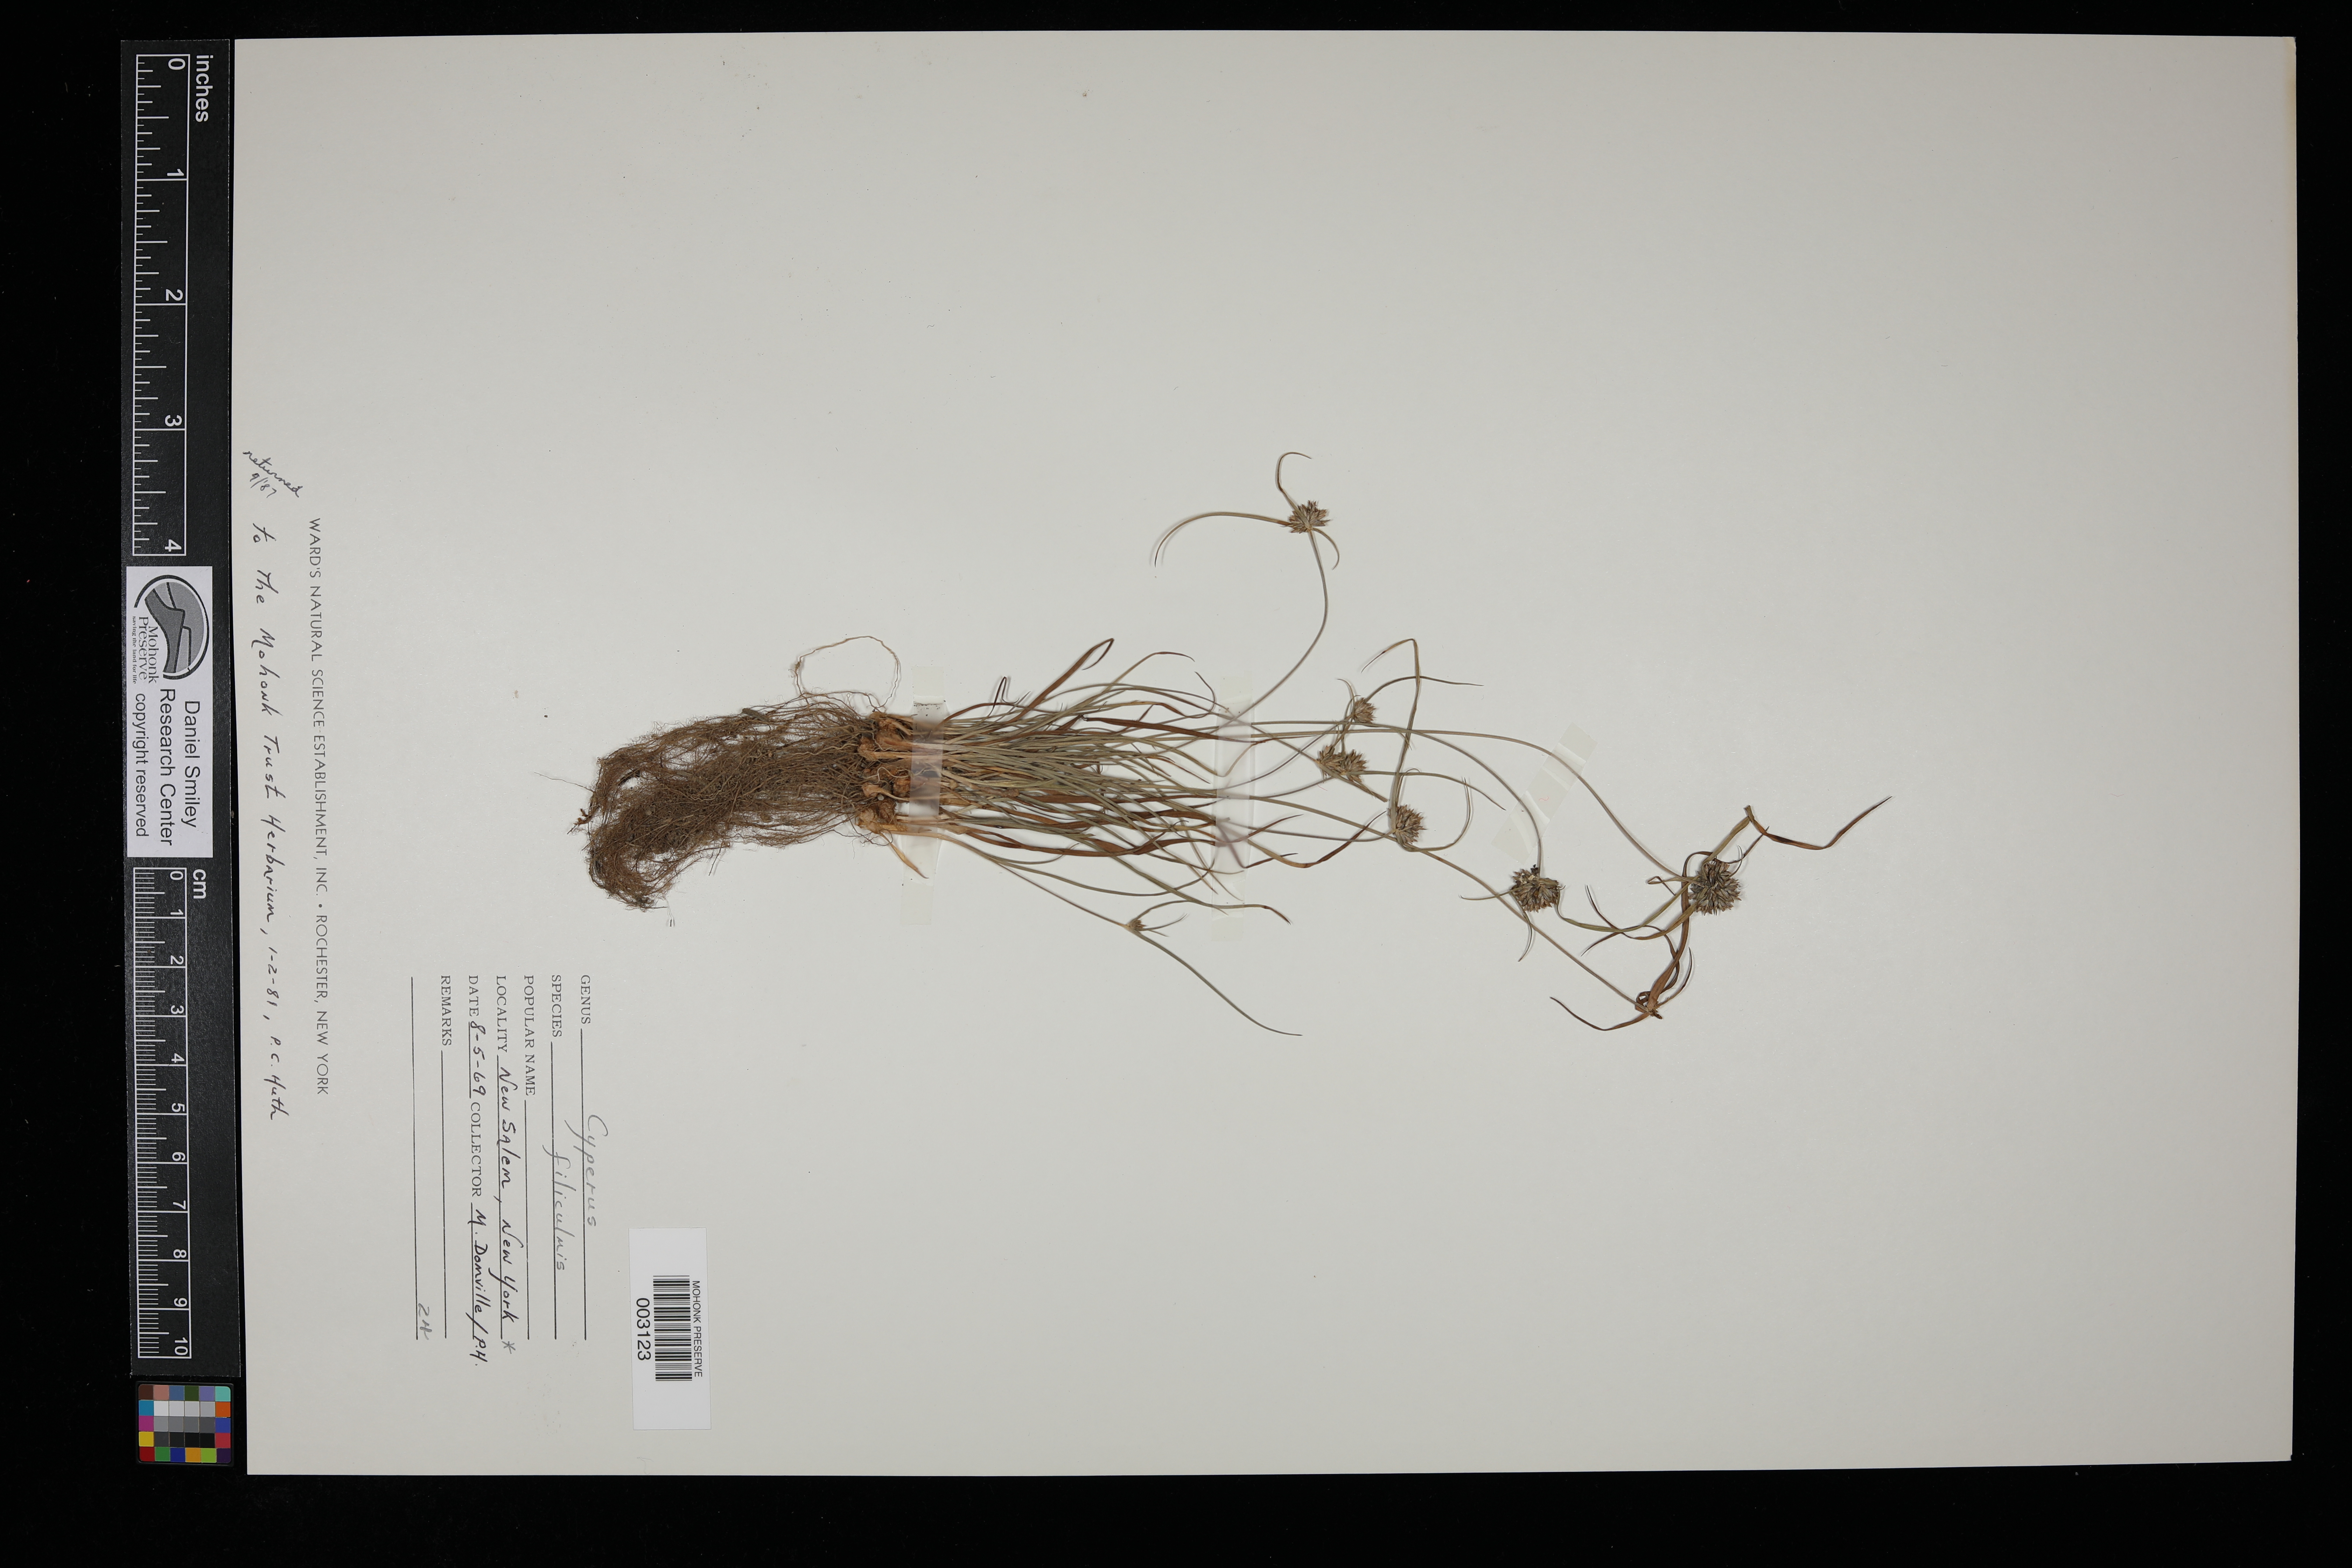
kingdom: Plantae
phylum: Tracheophyta
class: Liliopsida
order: Poales
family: Cyperaceae
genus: Cyperus
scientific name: Cyperus filiculmis
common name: Slender sand sedge
